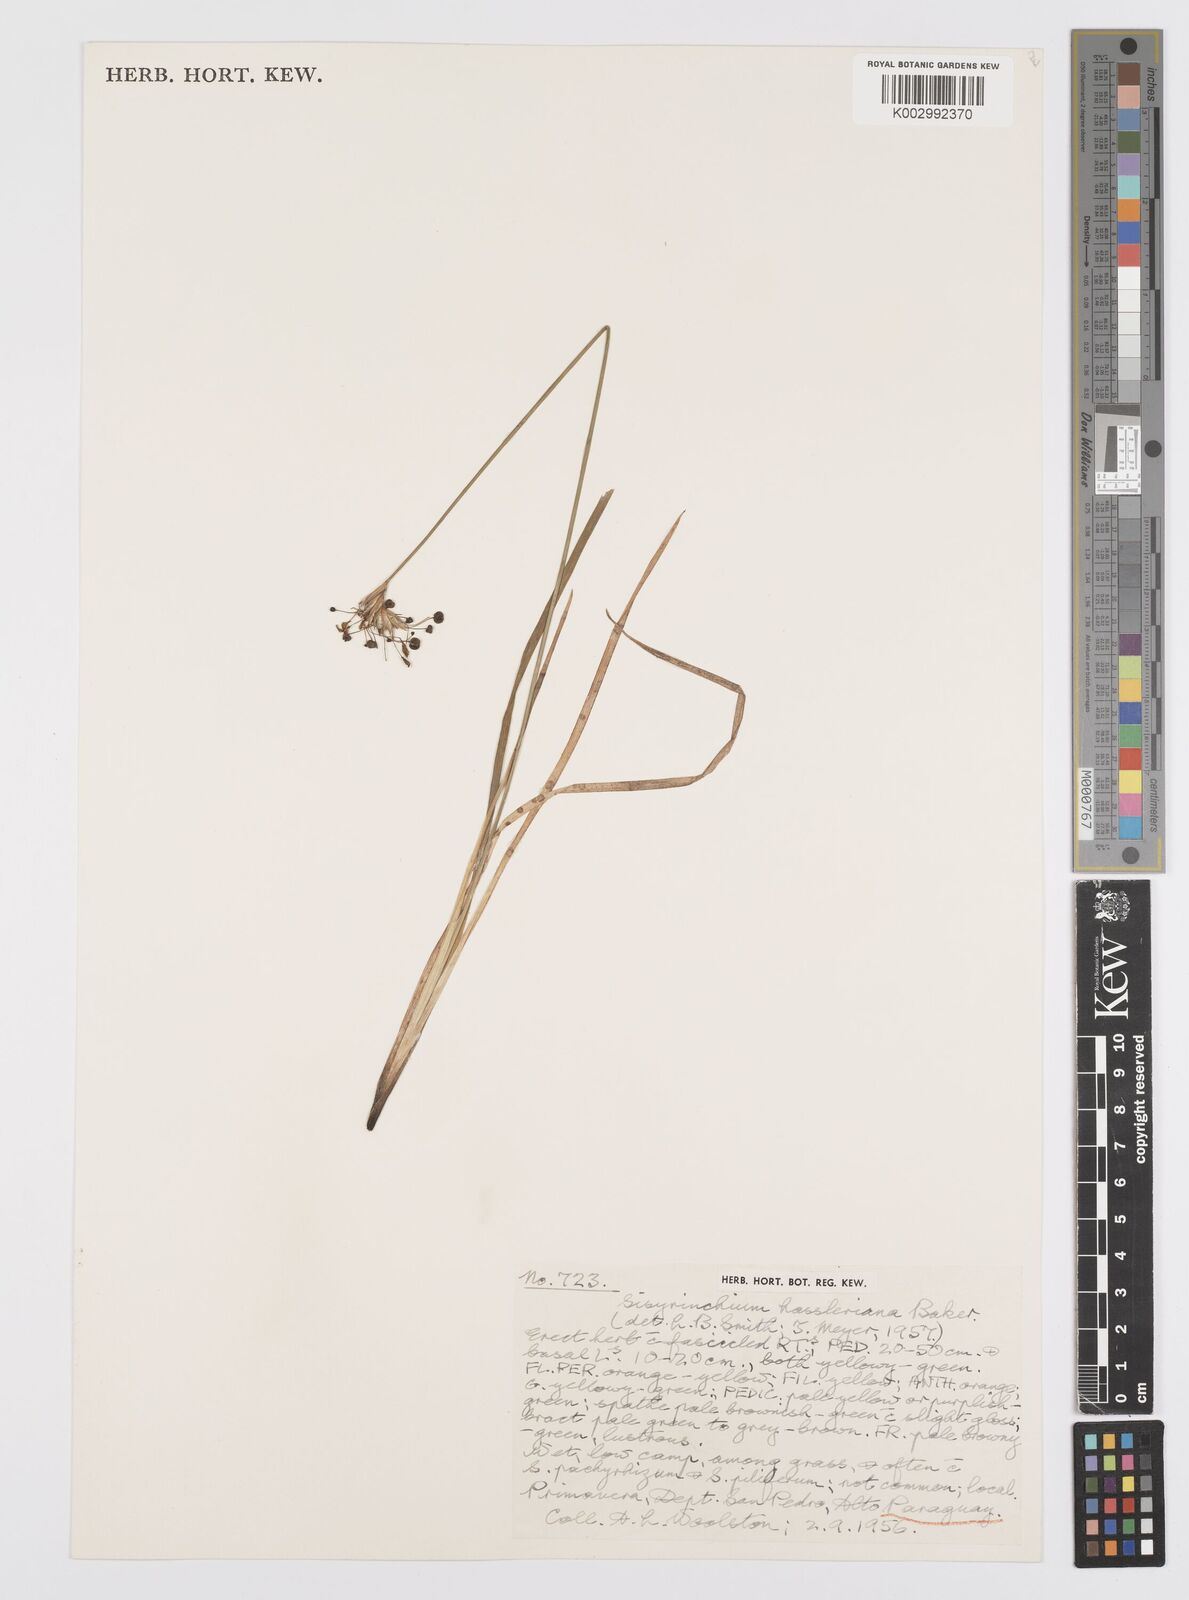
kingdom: Plantae
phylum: Tracheophyta
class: Liliopsida
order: Asparagales
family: Iridaceae
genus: Sisyrinchium
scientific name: Sisyrinchium hasslerianum
